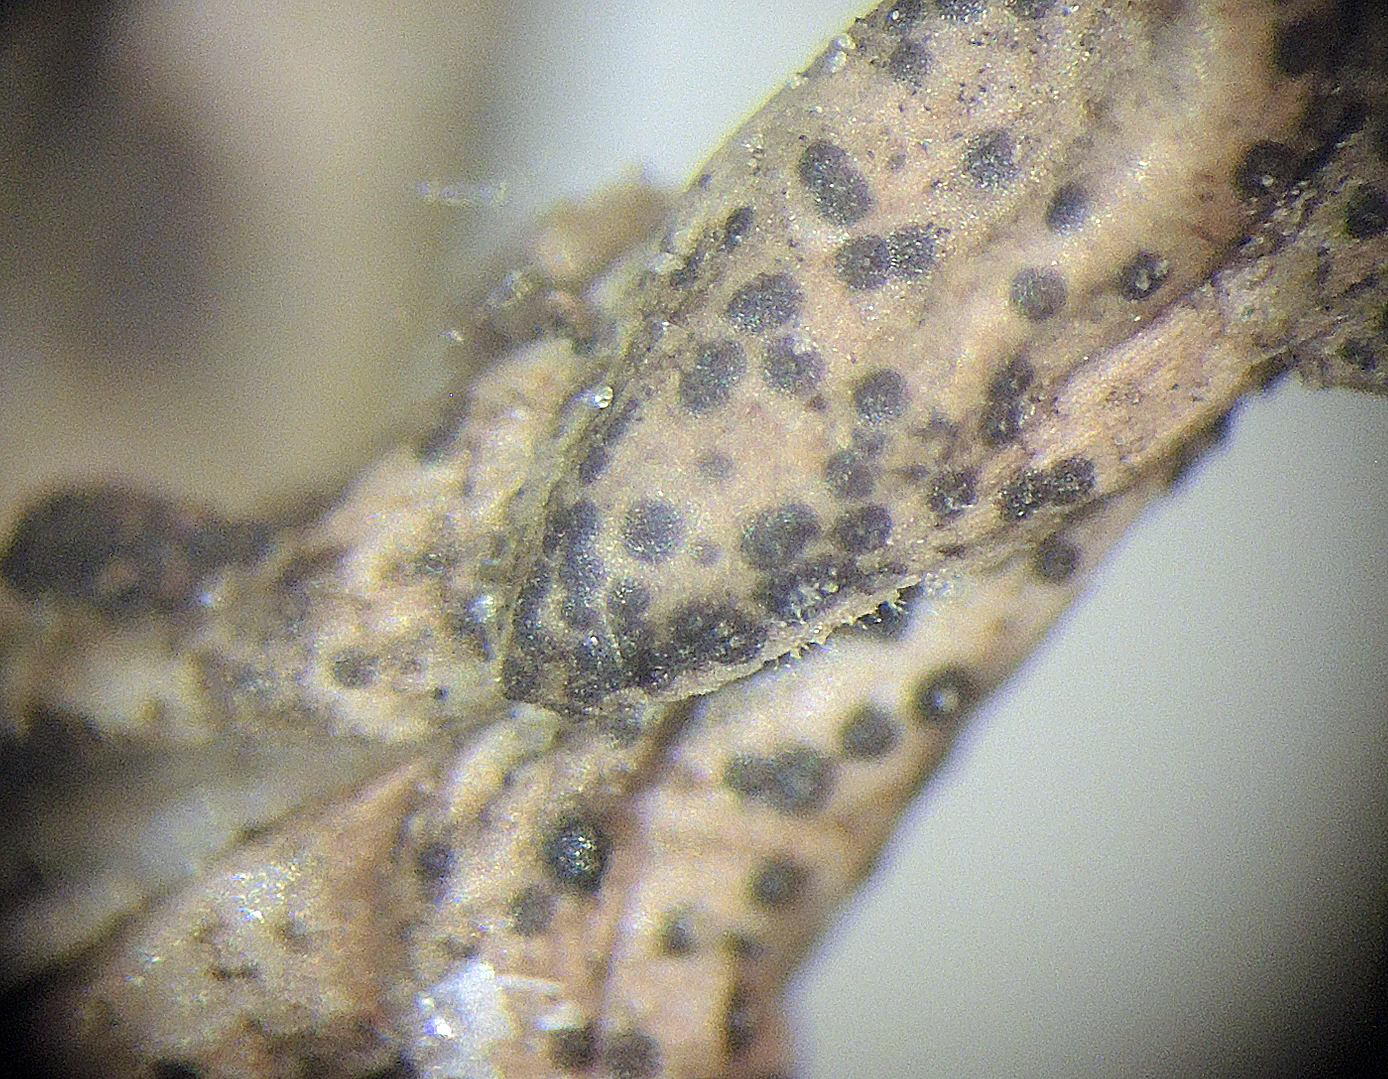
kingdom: Fungi
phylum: Ascomycota
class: Dothideomycetes
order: Microthyriales
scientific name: Microthyriales
